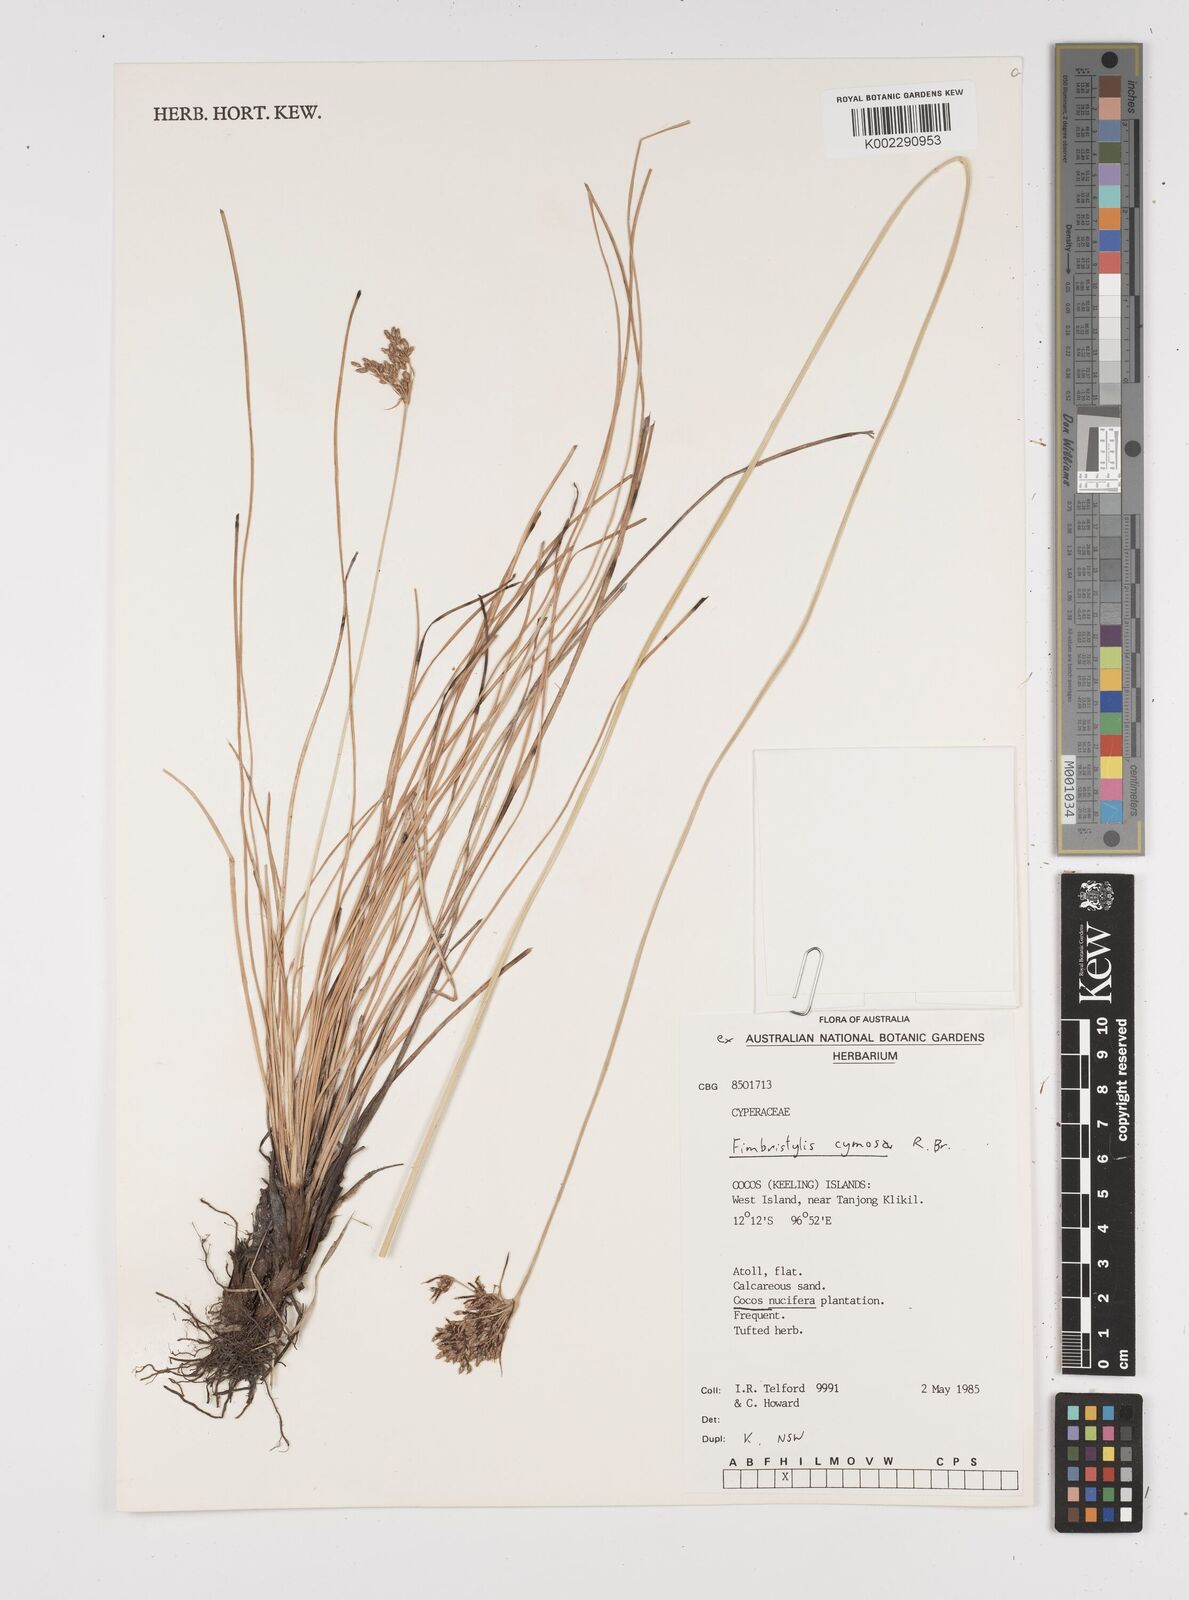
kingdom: Plantae
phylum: Tracheophyta
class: Liliopsida
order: Poales
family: Cyperaceae
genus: Fimbristylis
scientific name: Fimbristylis cymosa
